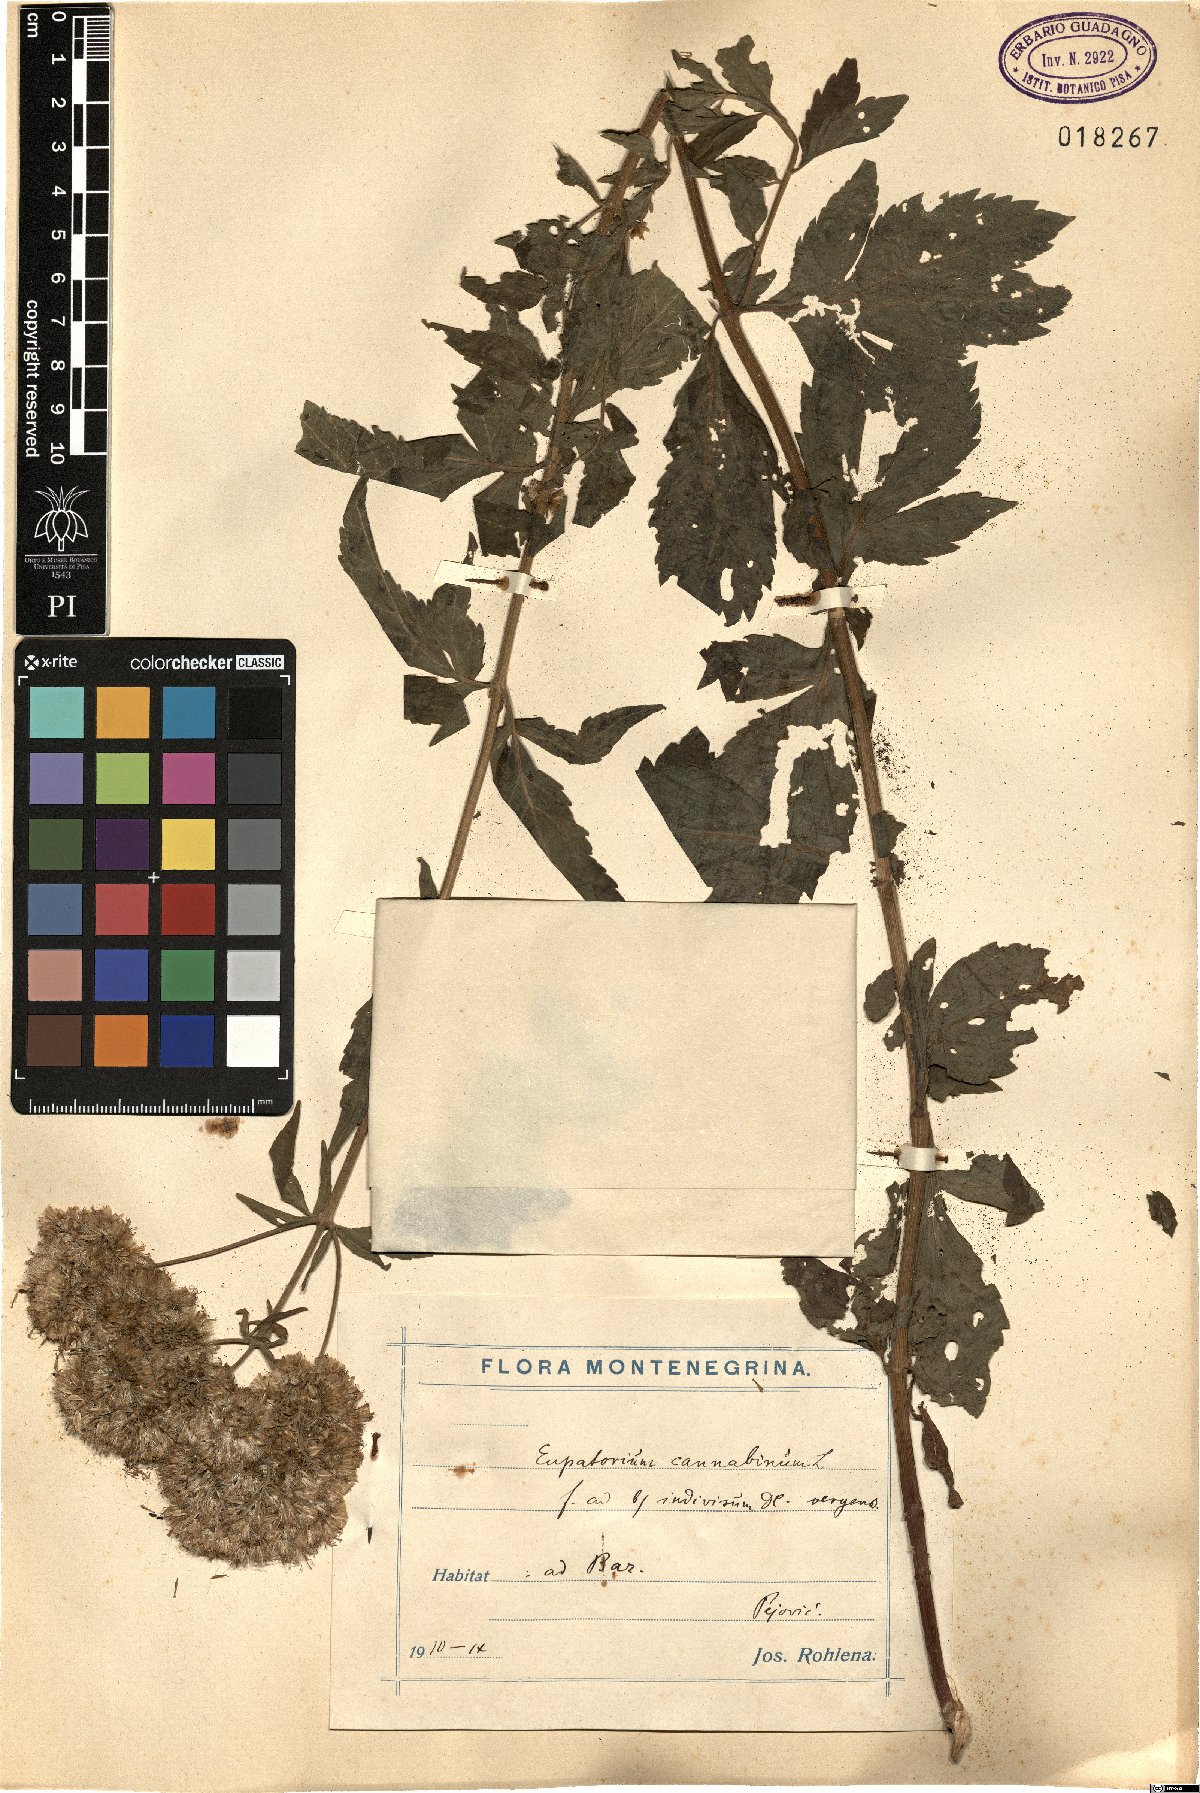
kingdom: Plantae
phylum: Tracheophyta
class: Magnoliopsida
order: Asterales
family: Asteraceae
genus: Eupatorium
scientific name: Eupatorium cannabinum
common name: Hemp-agrimony
